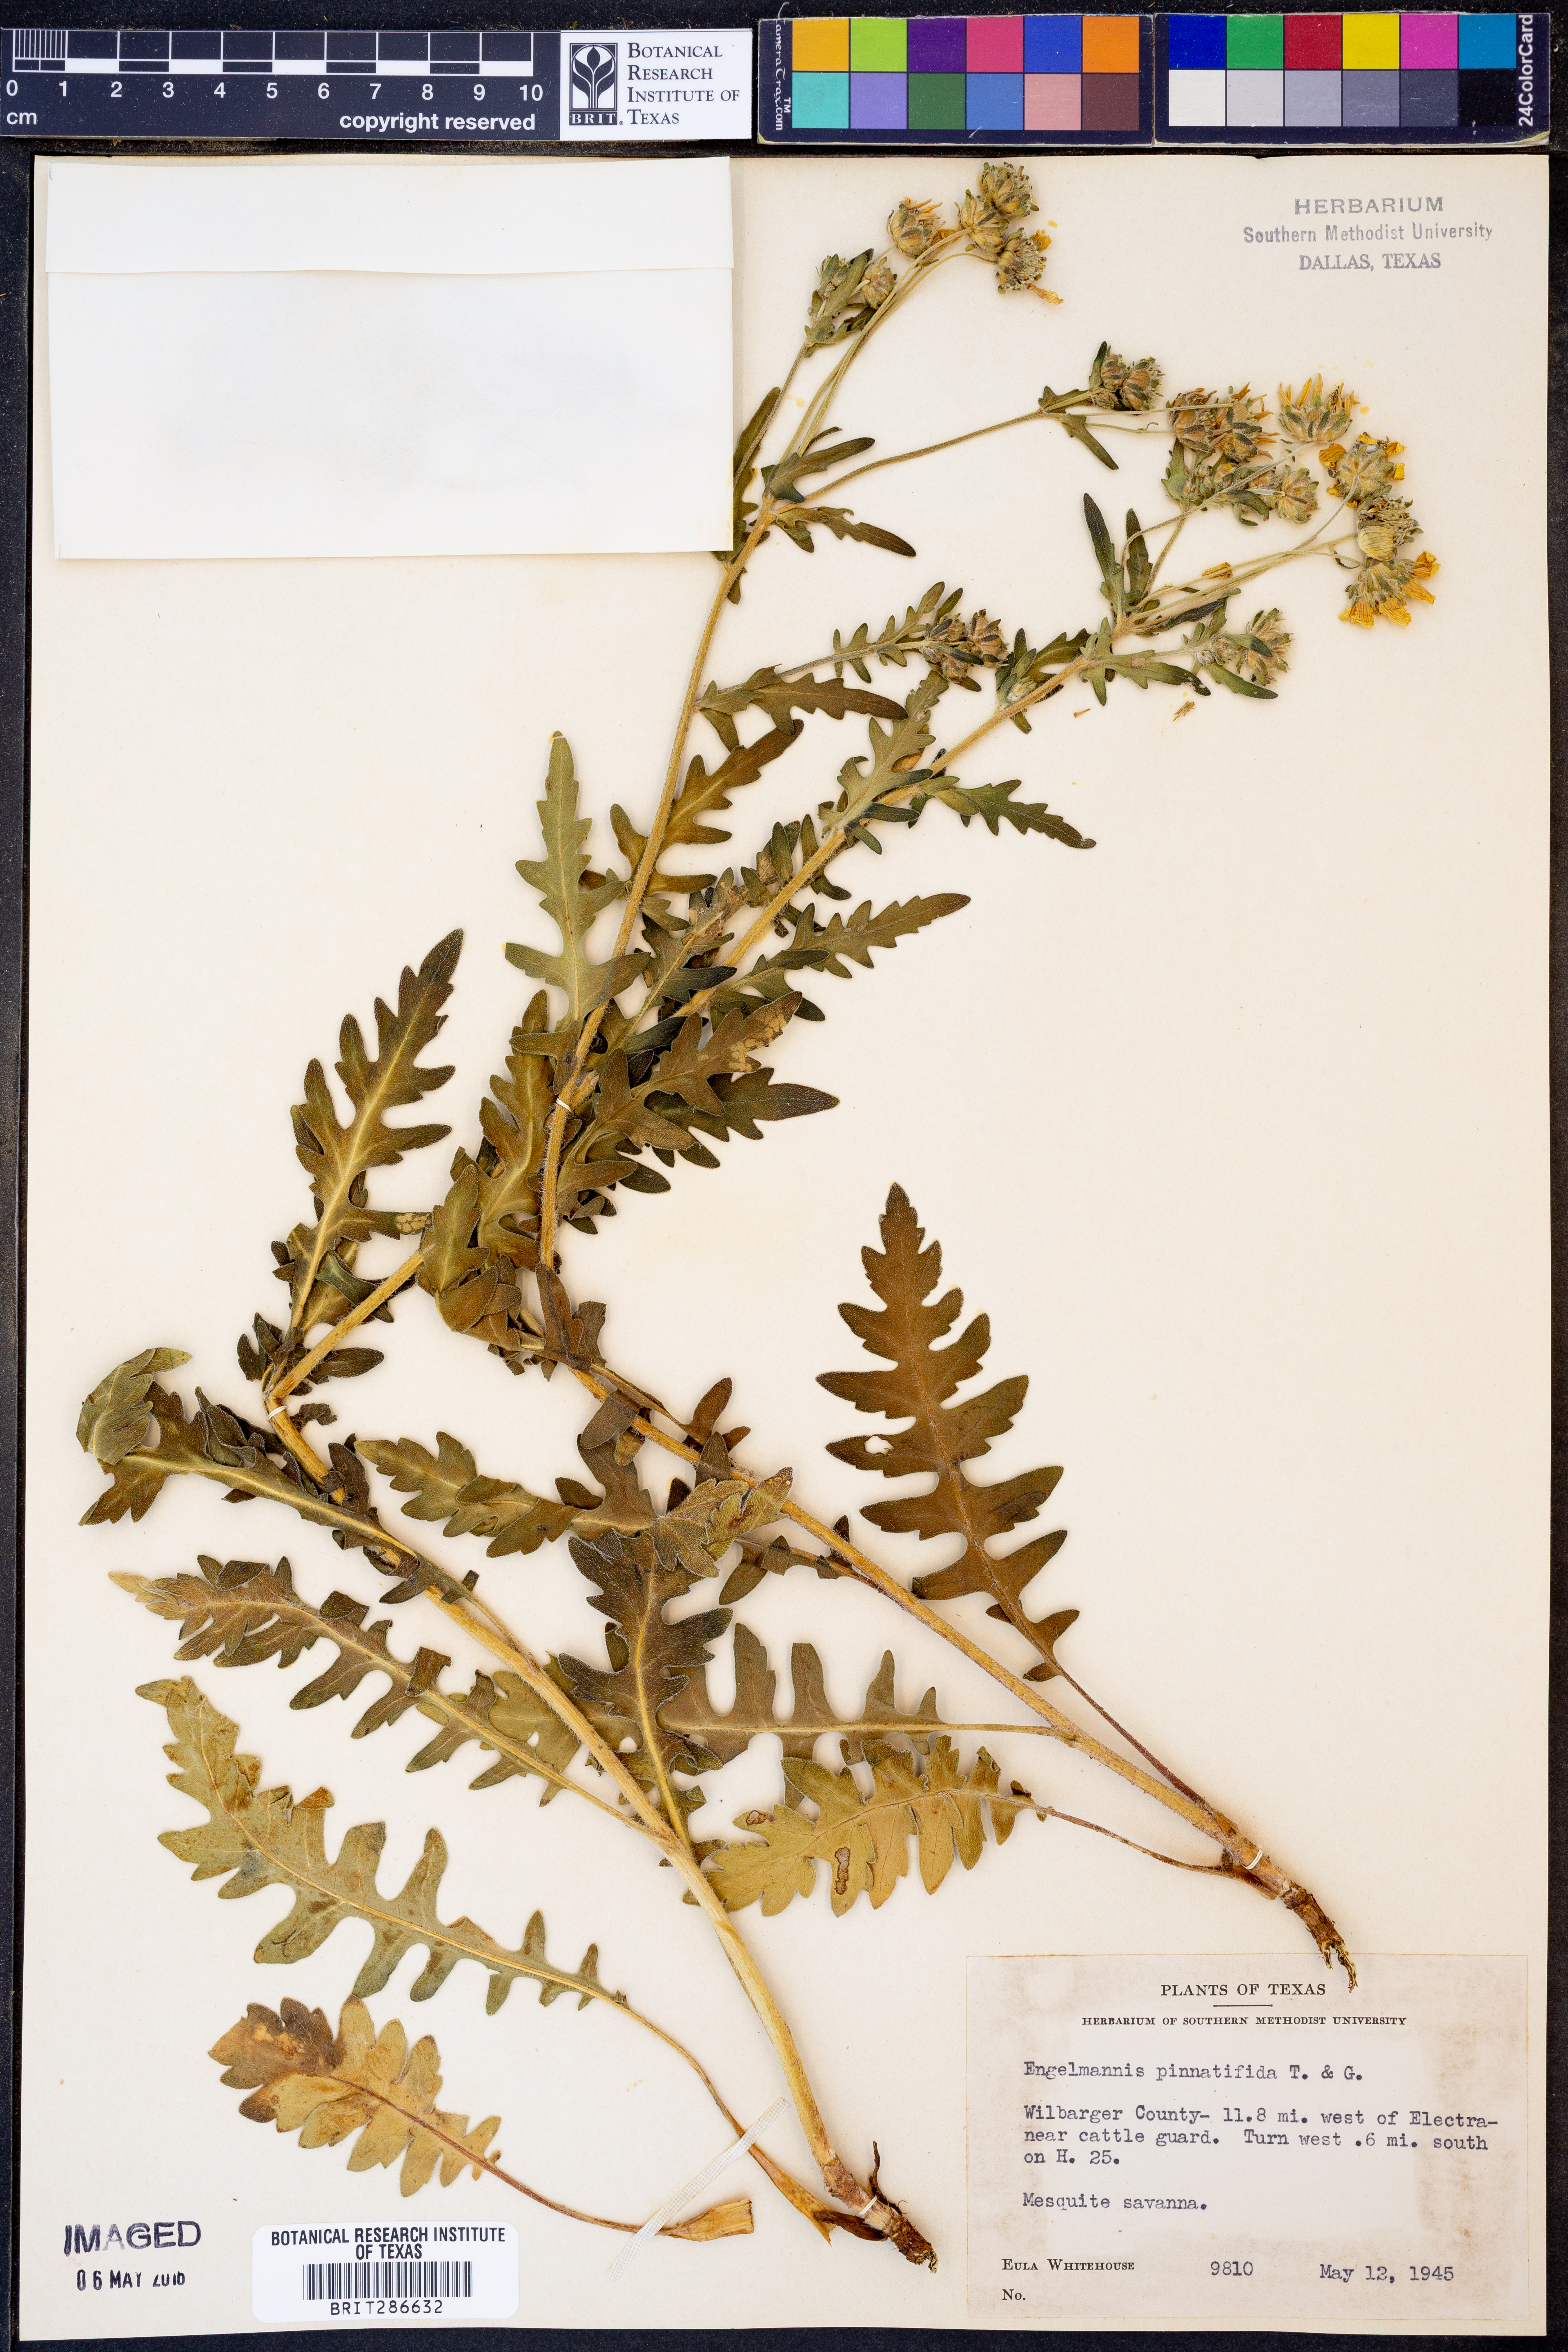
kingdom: Plantae
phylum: Tracheophyta
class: Magnoliopsida
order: Asterales
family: Asteraceae
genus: Engelmannia
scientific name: Engelmannia peristenia
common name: Engelmann's daisy
